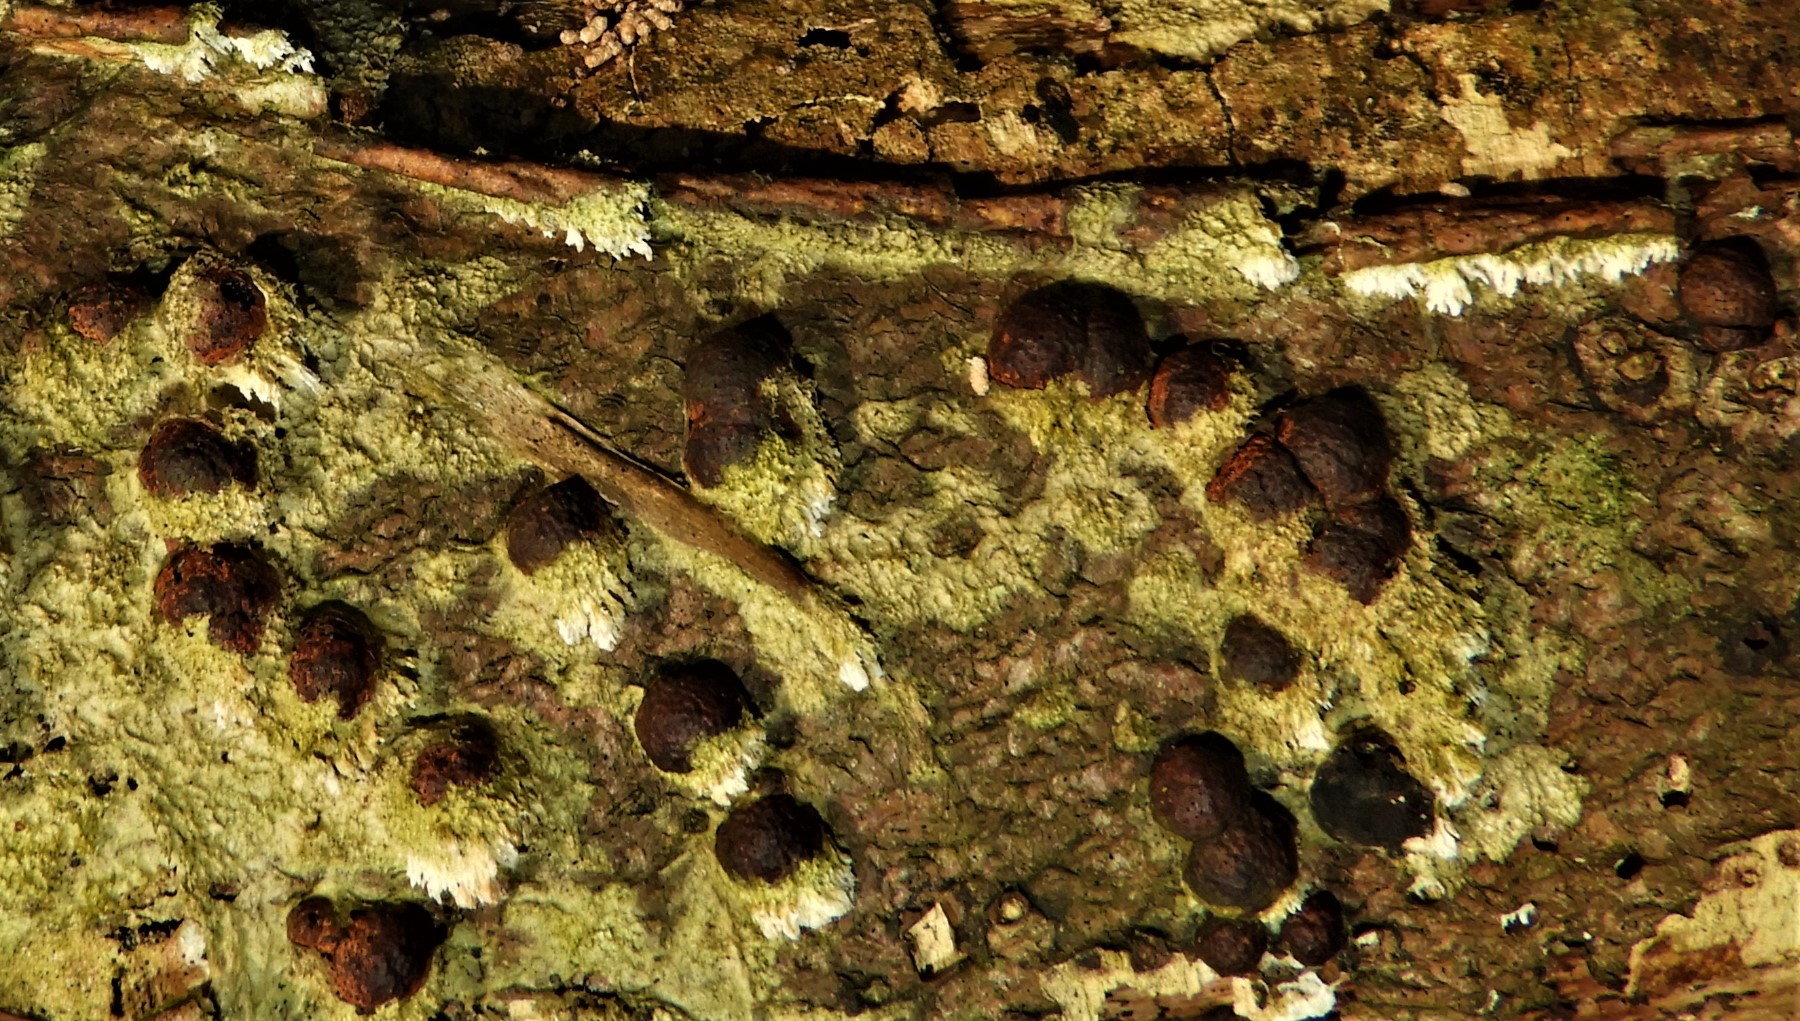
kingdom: Fungi
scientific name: Fungi
